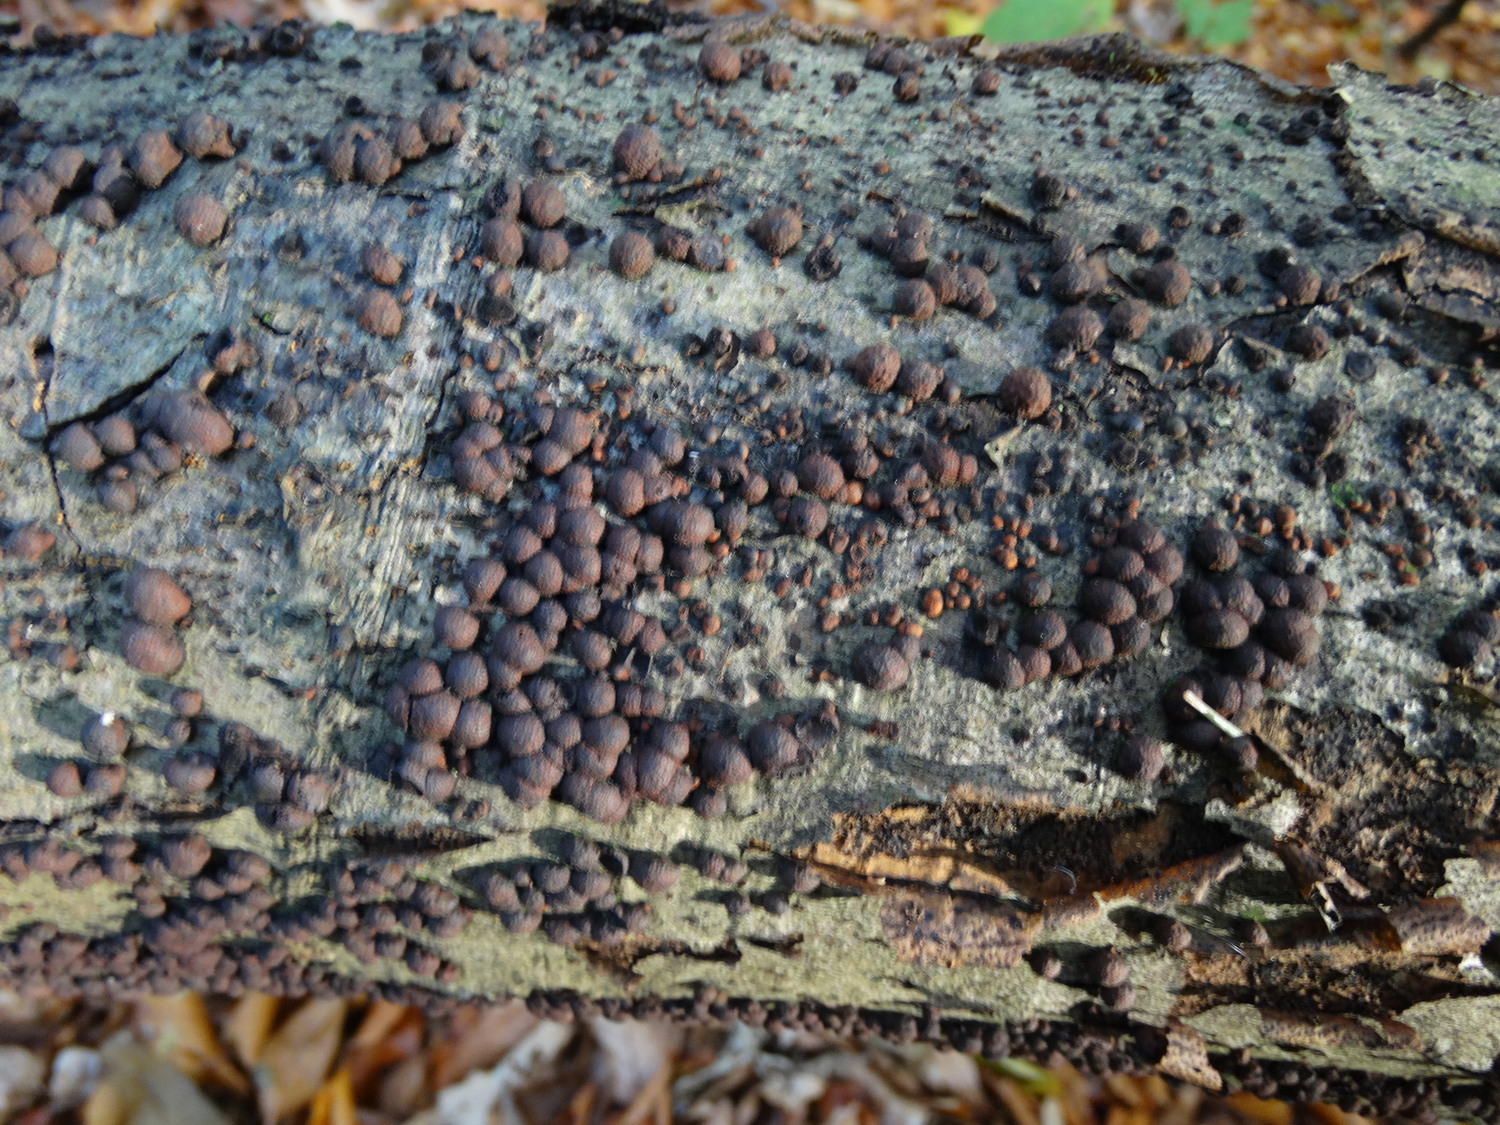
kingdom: Fungi
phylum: Ascomycota
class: Sordariomycetes
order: Xylariales
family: Hypoxylaceae
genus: Hypoxylon
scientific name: Hypoxylon fragiforme
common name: kuljordbær
